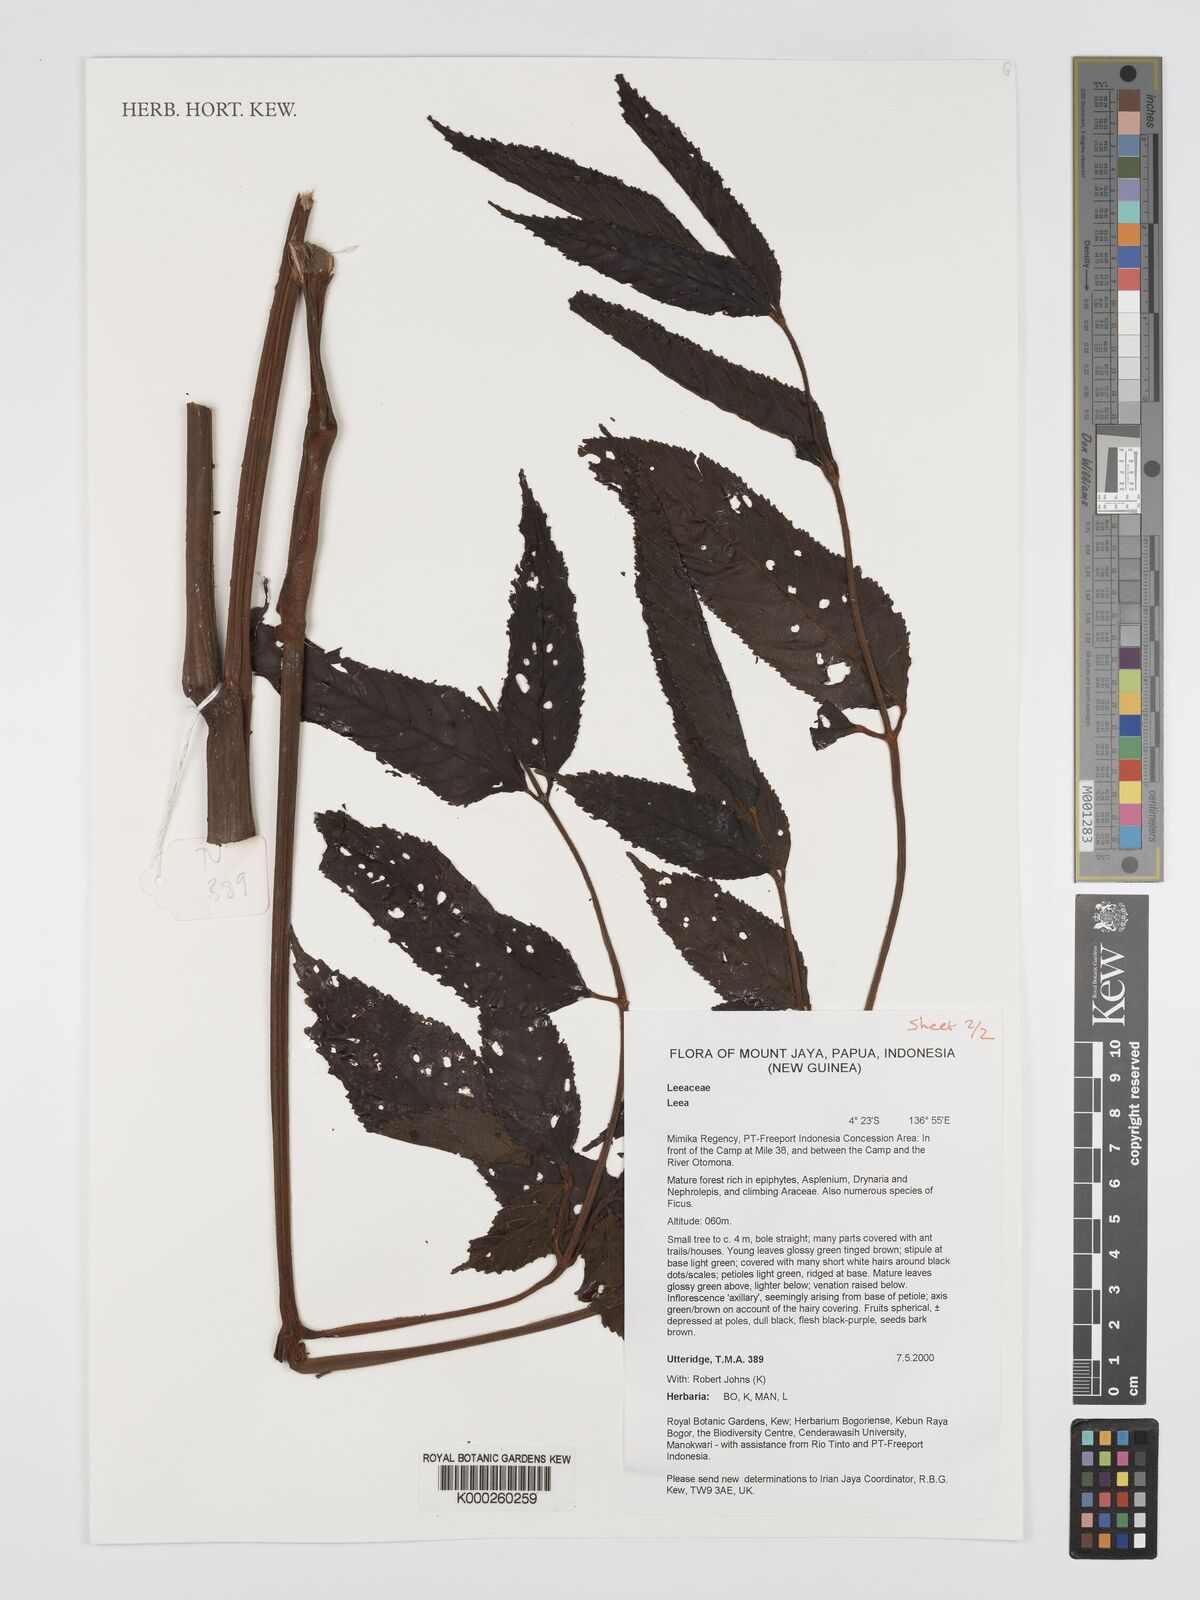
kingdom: Plantae
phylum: Tracheophyta
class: Magnoliopsida
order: Vitales
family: Vitaceae
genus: Leea
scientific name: Leea
